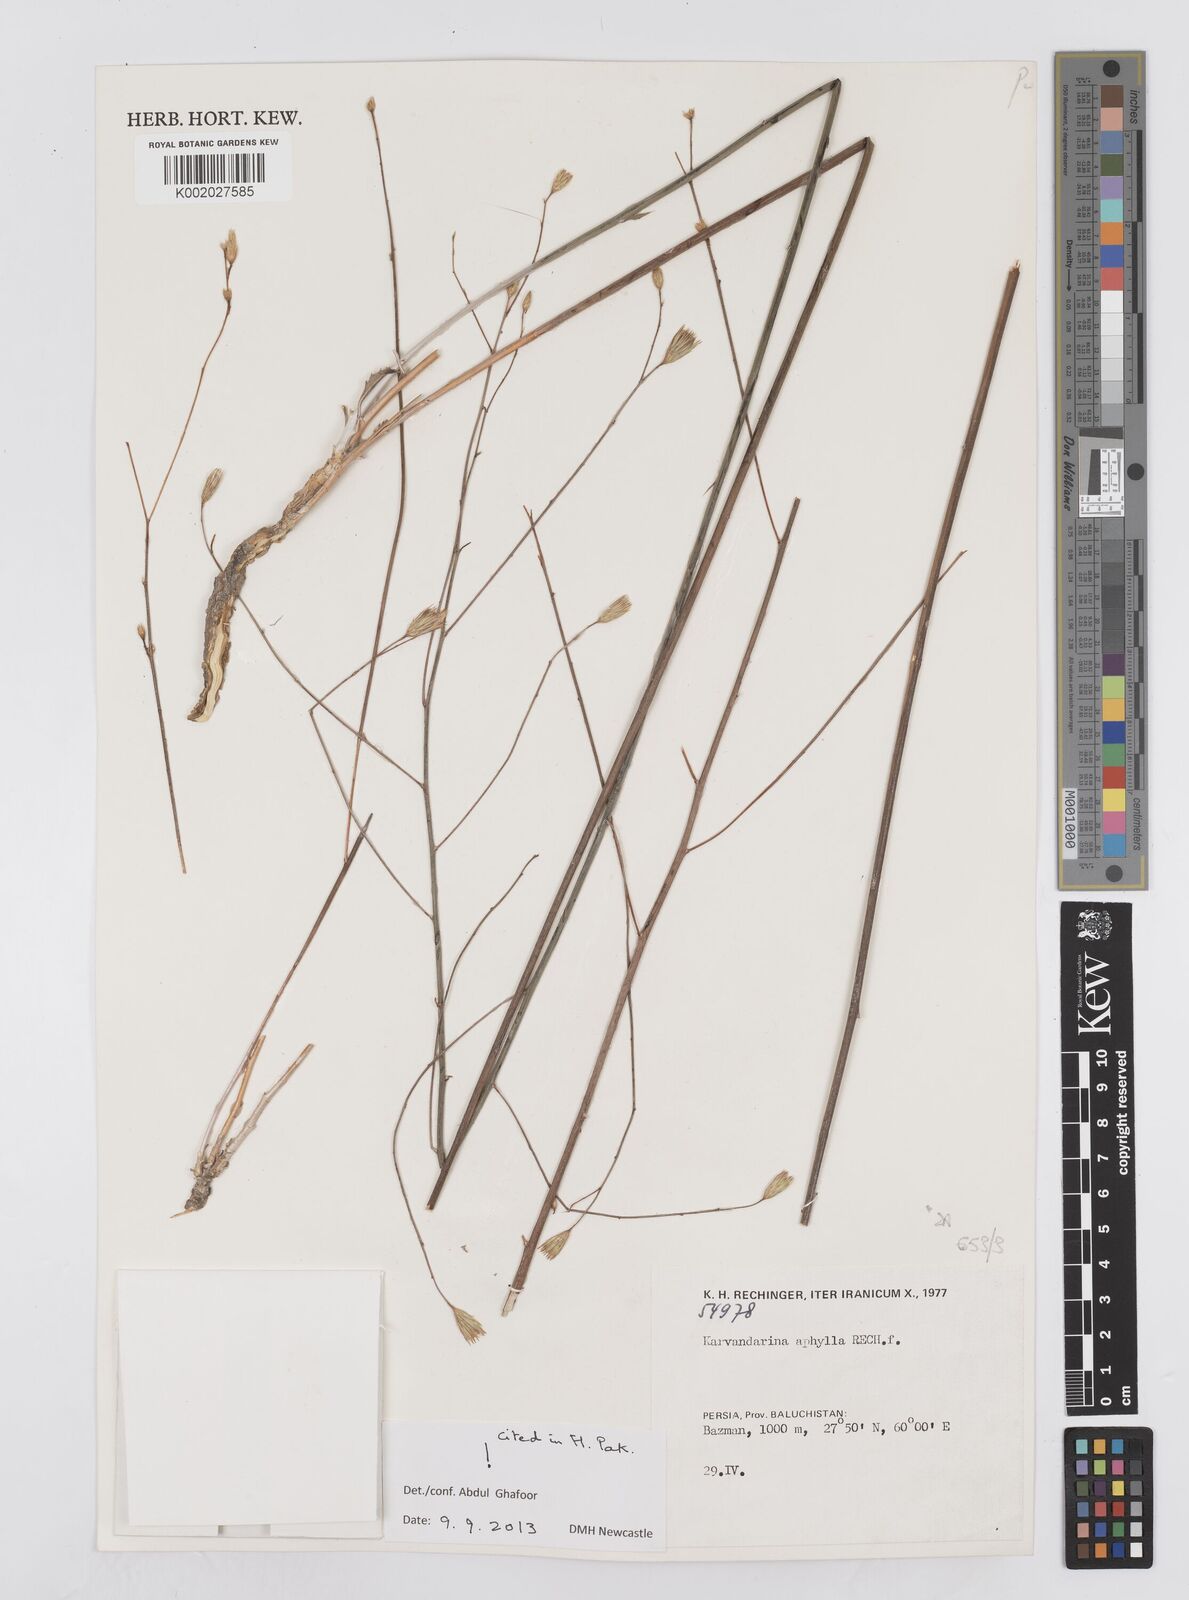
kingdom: Plantae
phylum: Tracheophyta
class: Magnoliopsida
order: Asterales
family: Asteraceae
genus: Karvandarina
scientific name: Karvandarina aphylla
